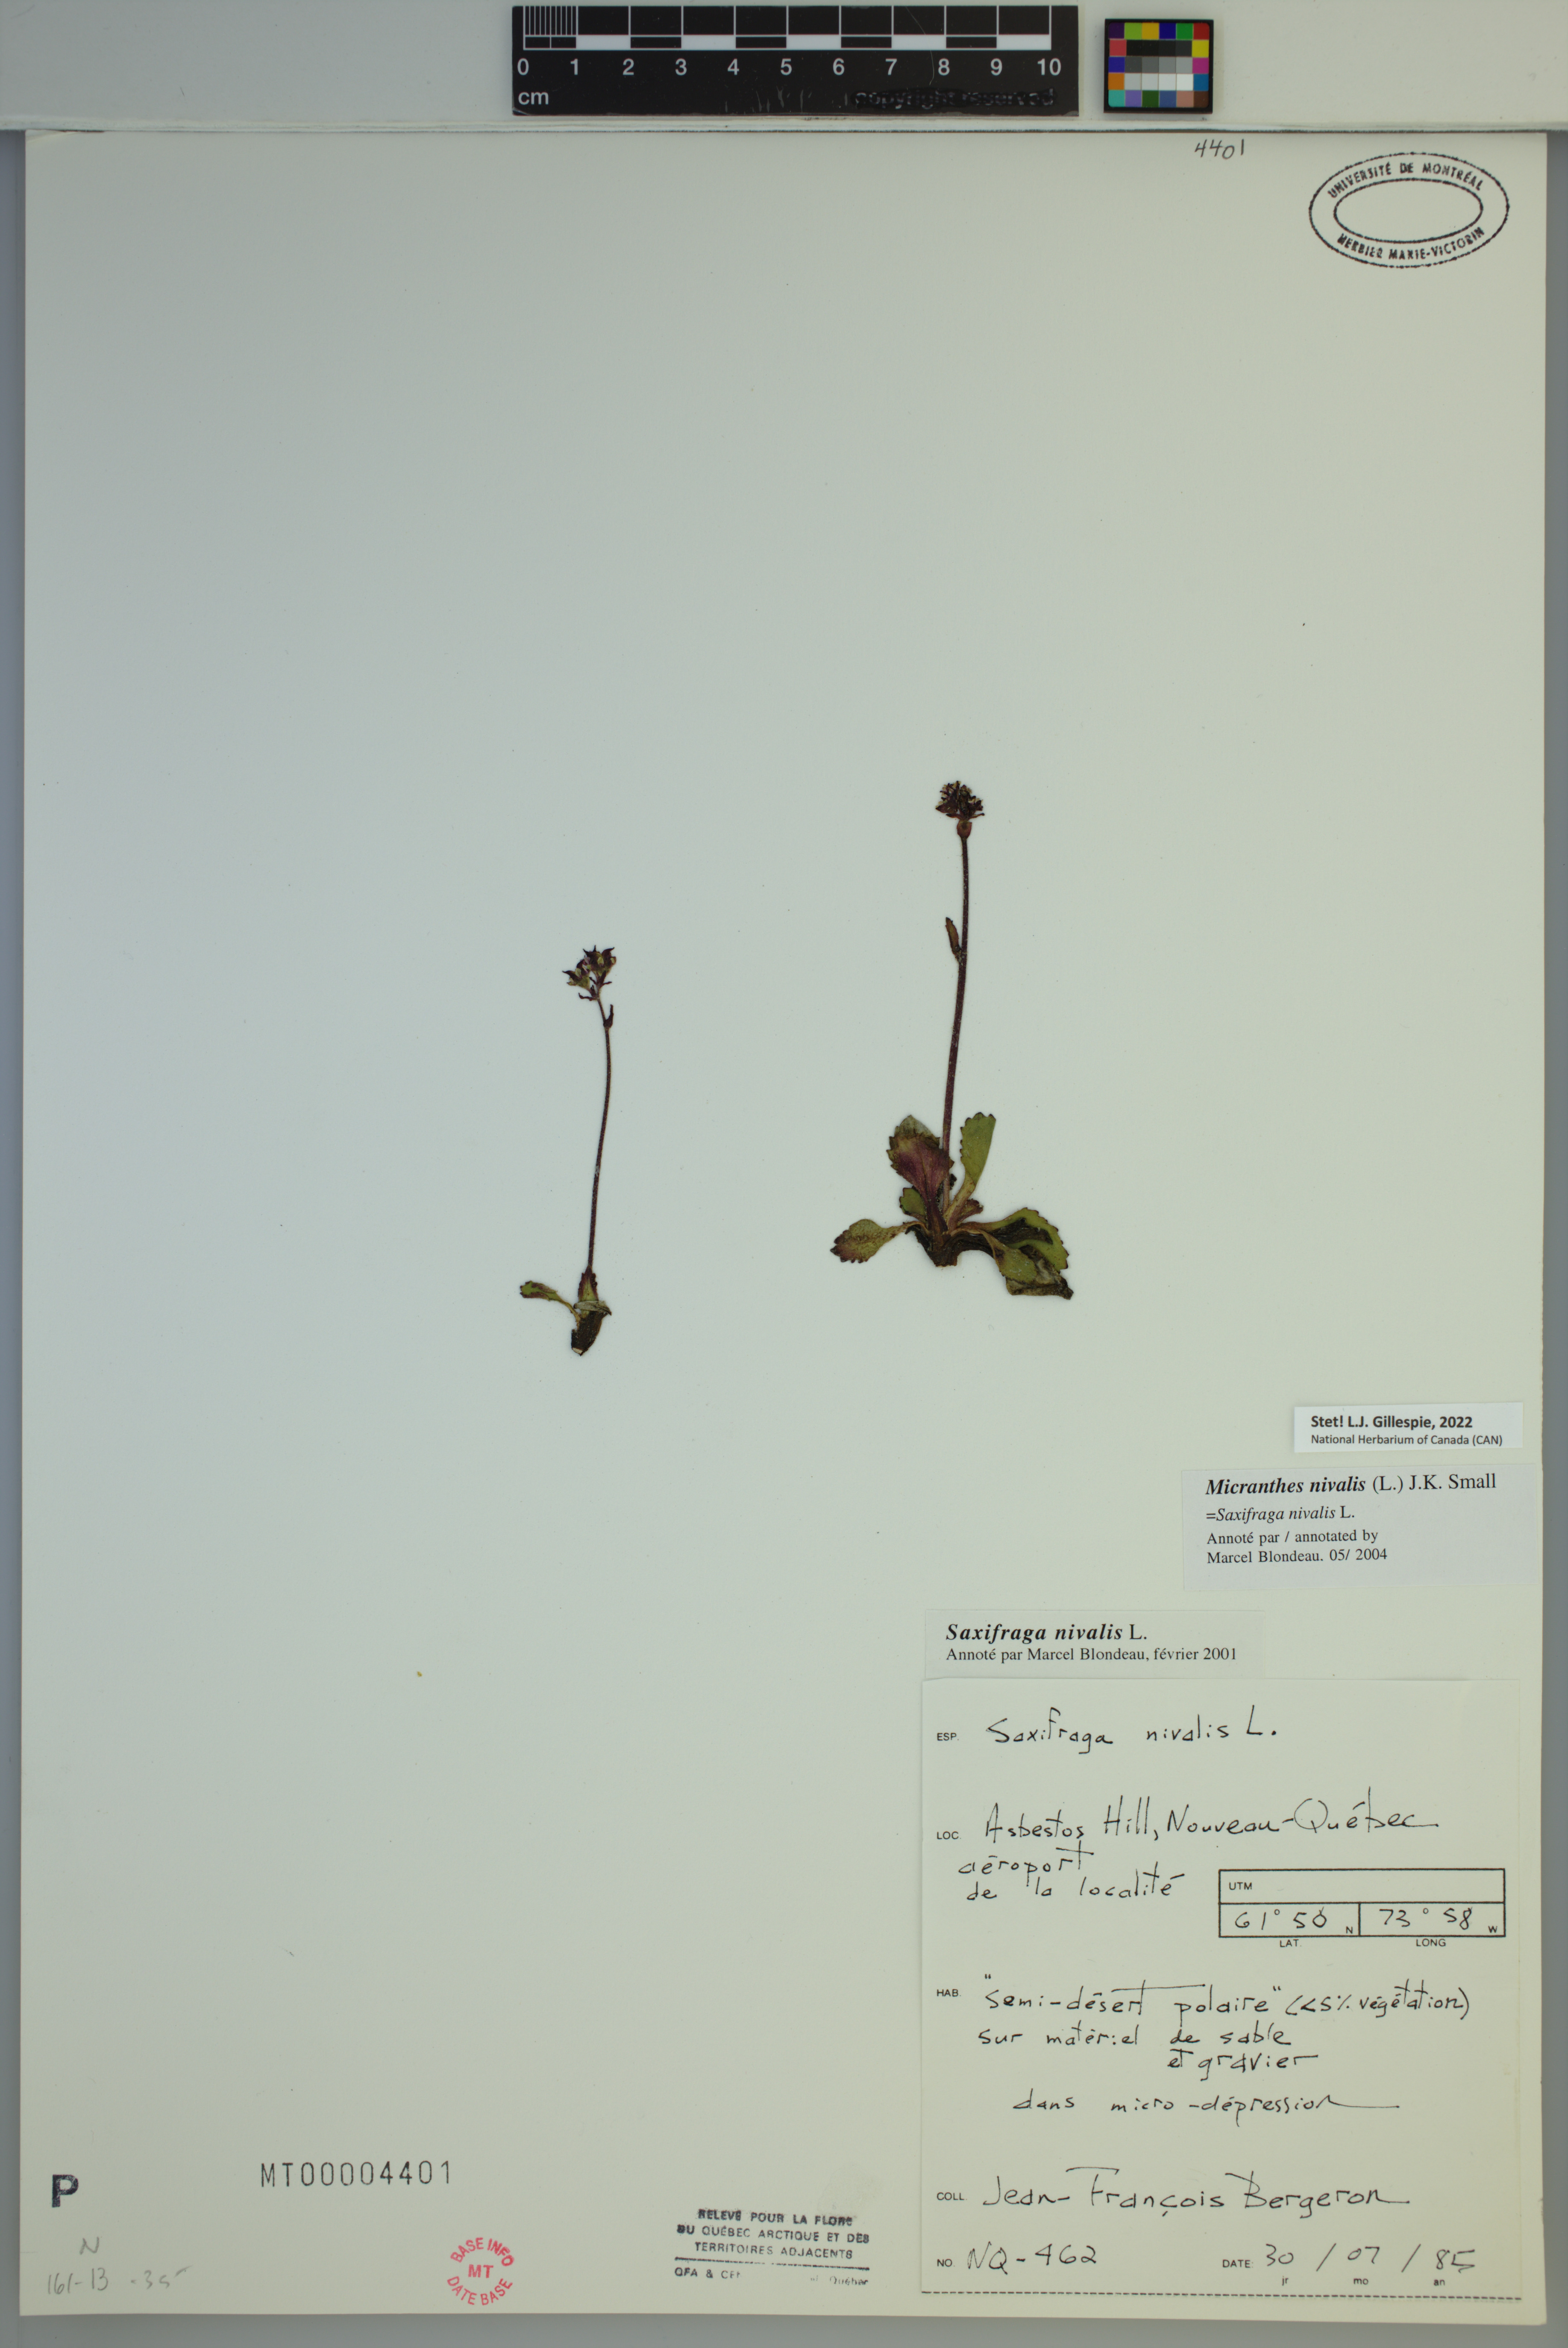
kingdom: Plantae
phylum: Tracheophyta
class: Magnoliopsida
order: Saxifragales
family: Saxifragaceae
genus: Micranthes
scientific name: Micranthes nivalis
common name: Alpine saxifrage
